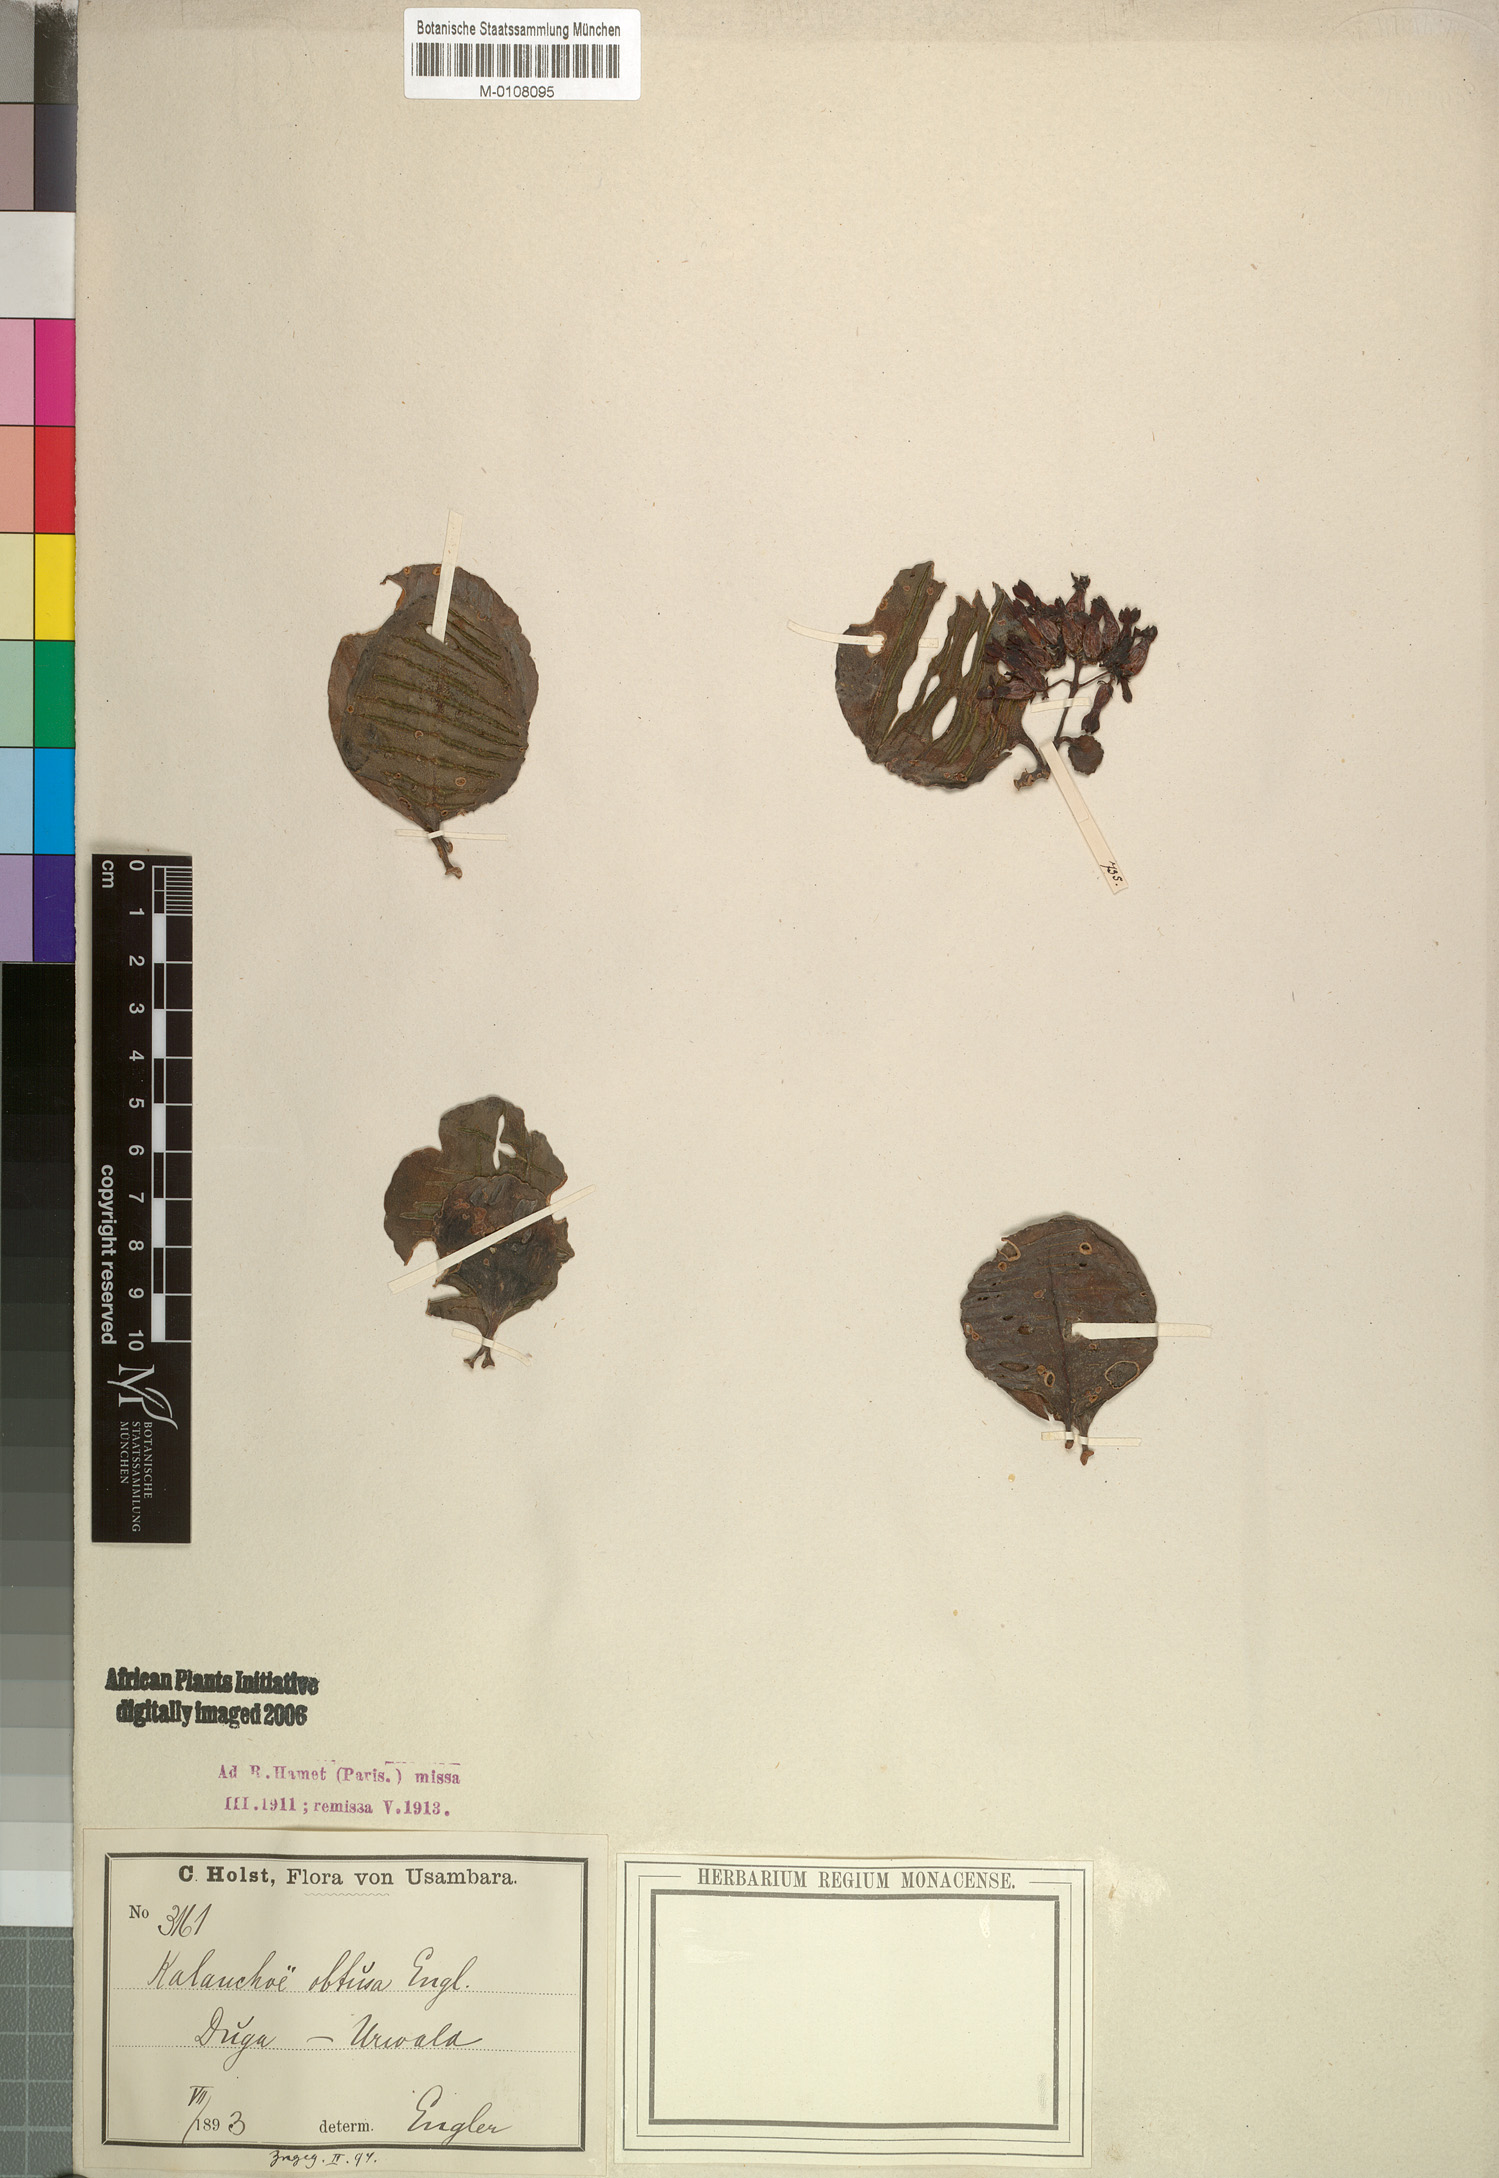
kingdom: Plantae
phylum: Tracheophyta
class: Magnoliopsida
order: Saxifragales
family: Crassulaceae
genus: Kalanchoe
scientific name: Kalanchoe obtusa
